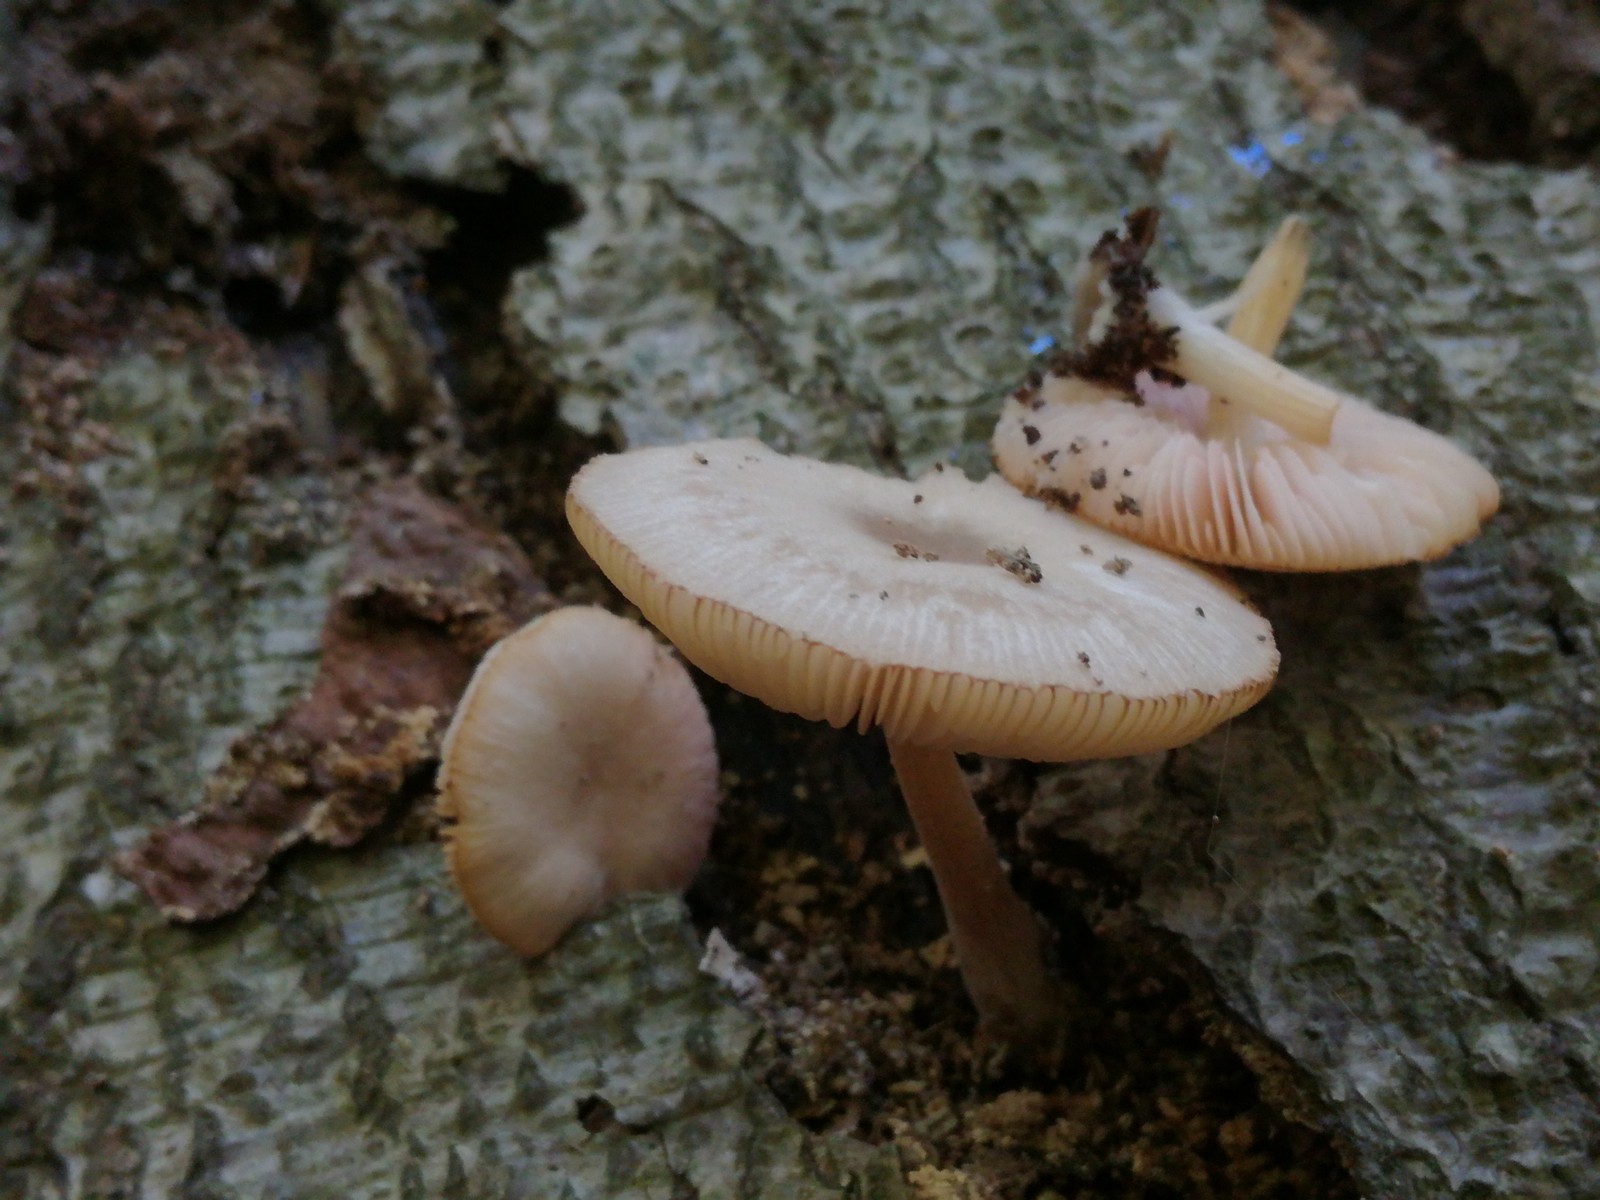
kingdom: Fungi
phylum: Basidiomycota
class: Agaricomycetes
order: Agaricales
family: Pluteaceae
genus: Pluteus
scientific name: Pluteus semibulbosus
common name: knoldet skærmhat
